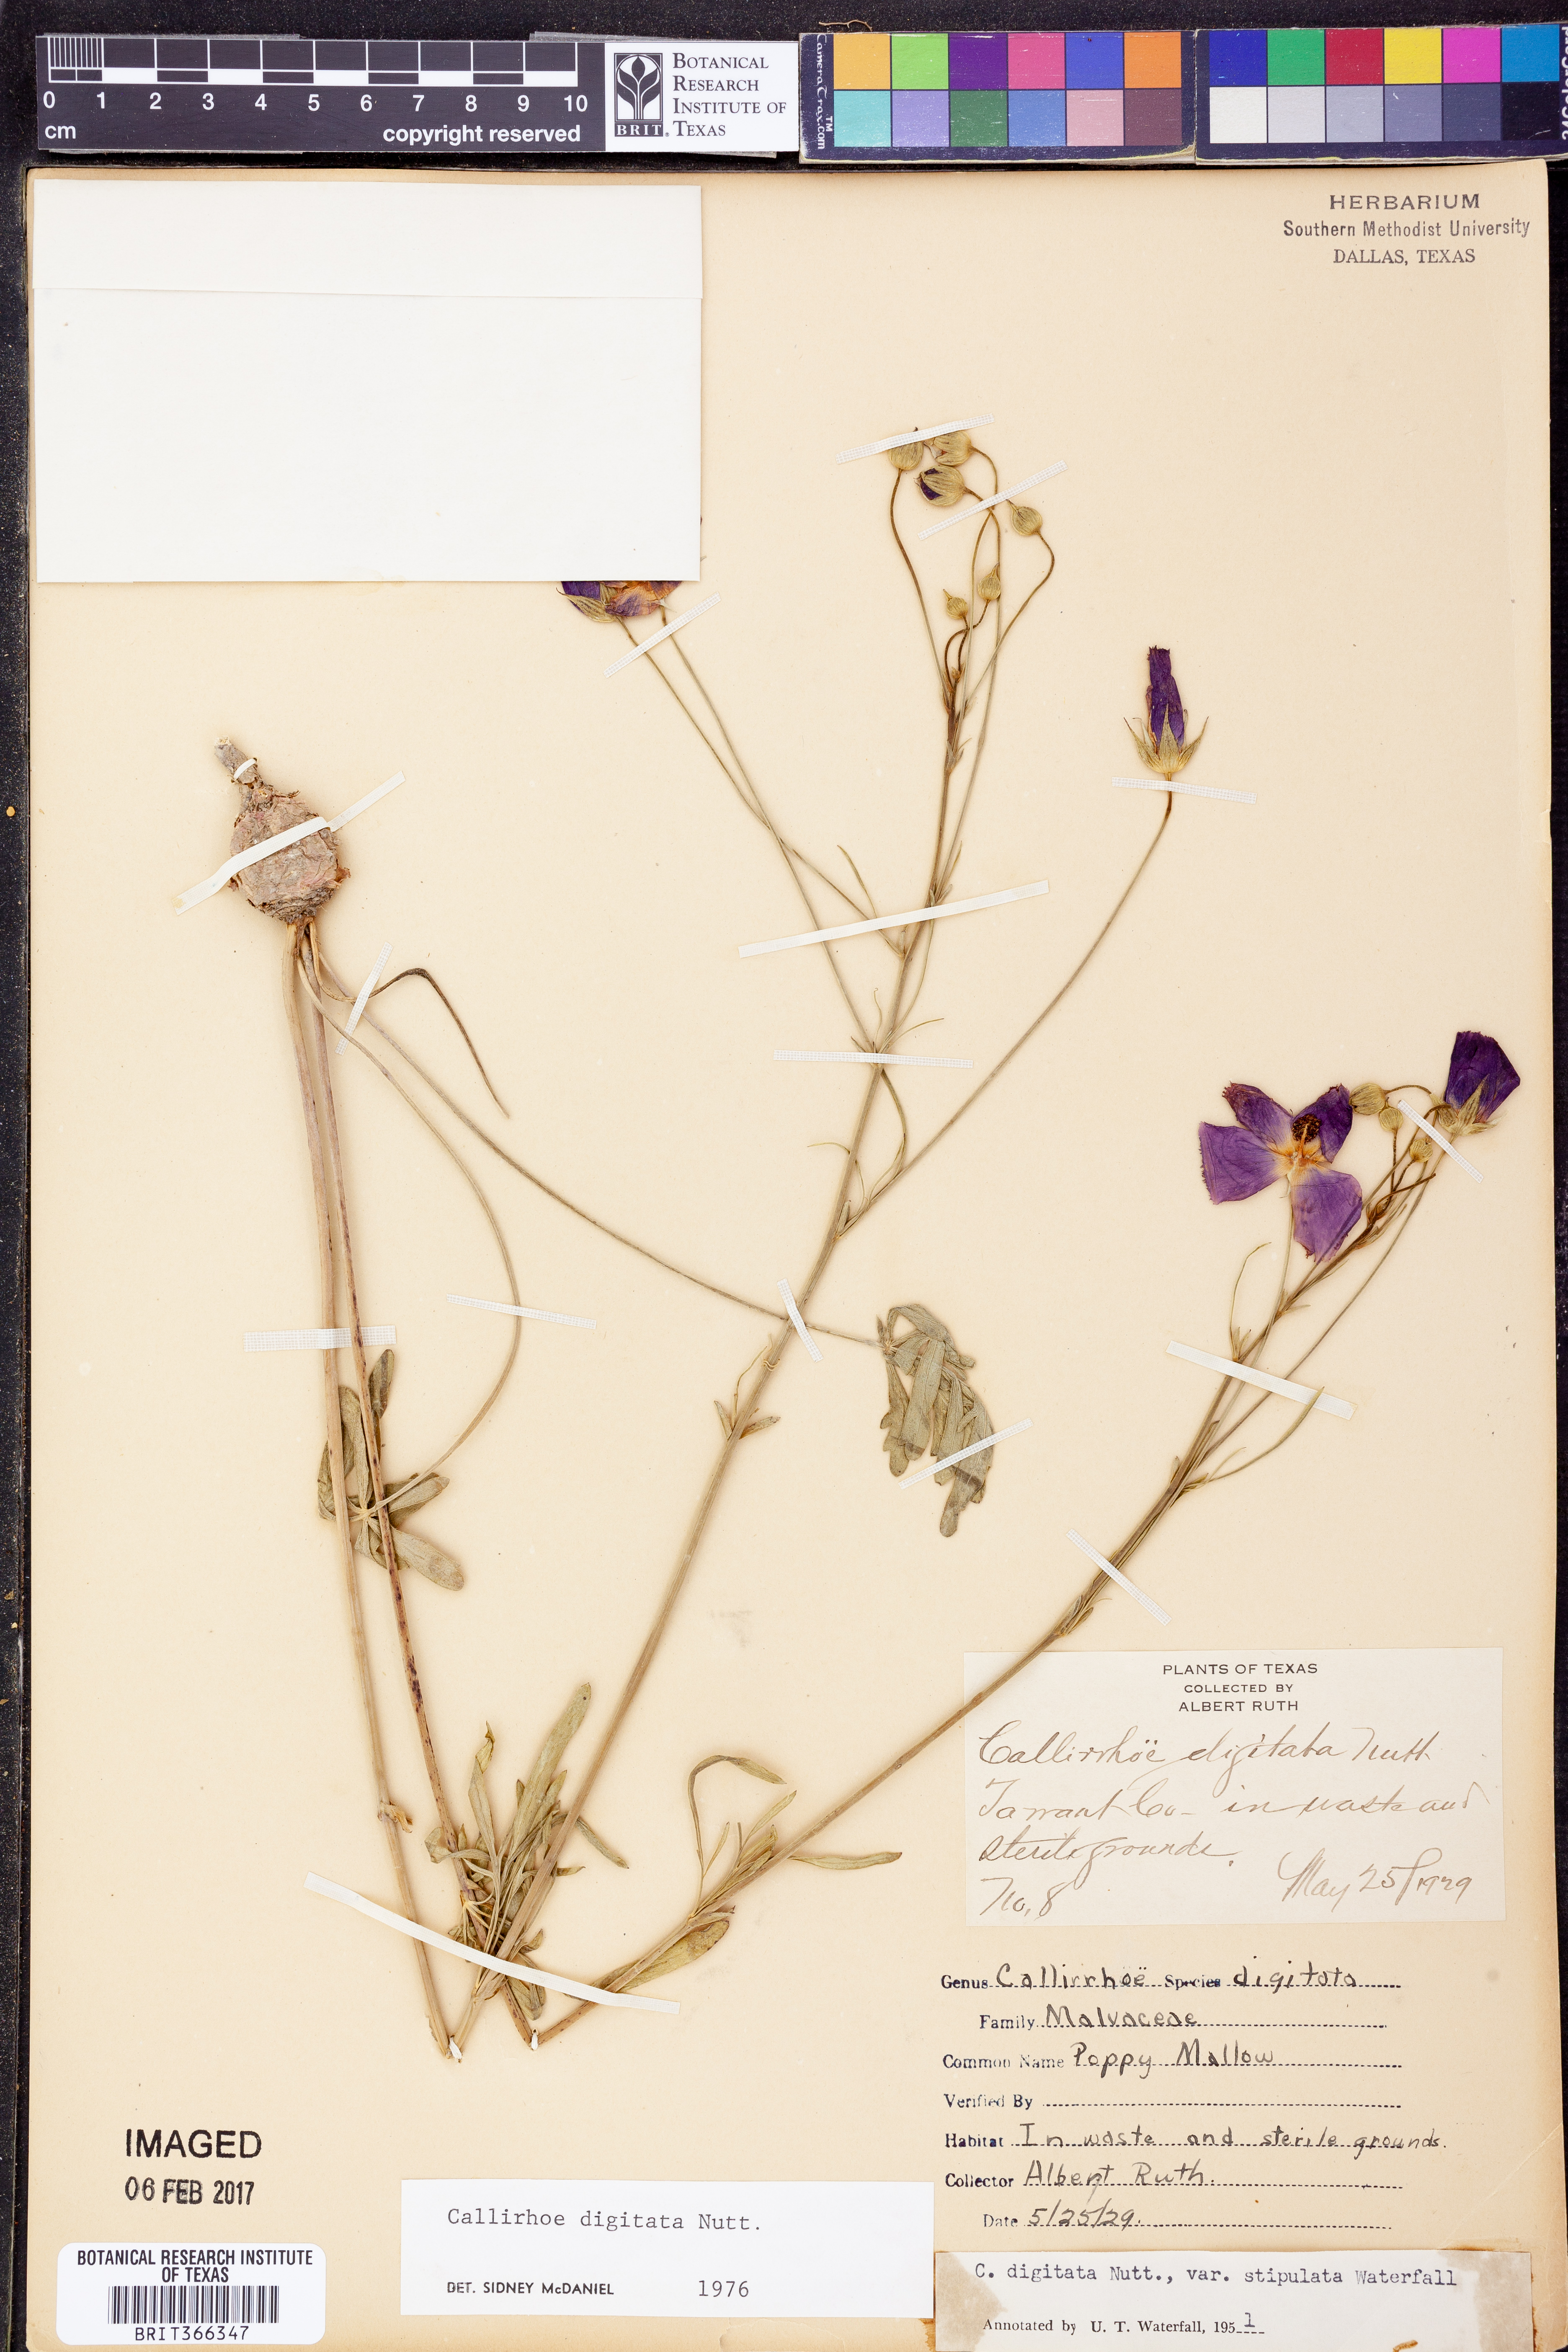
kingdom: Plantae
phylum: Tracheophyta
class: Magnoliopsida
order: Malvales
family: Malvaceae
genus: Callirhoe
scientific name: Callirhoe digitata
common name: Finger poppy-mallow
